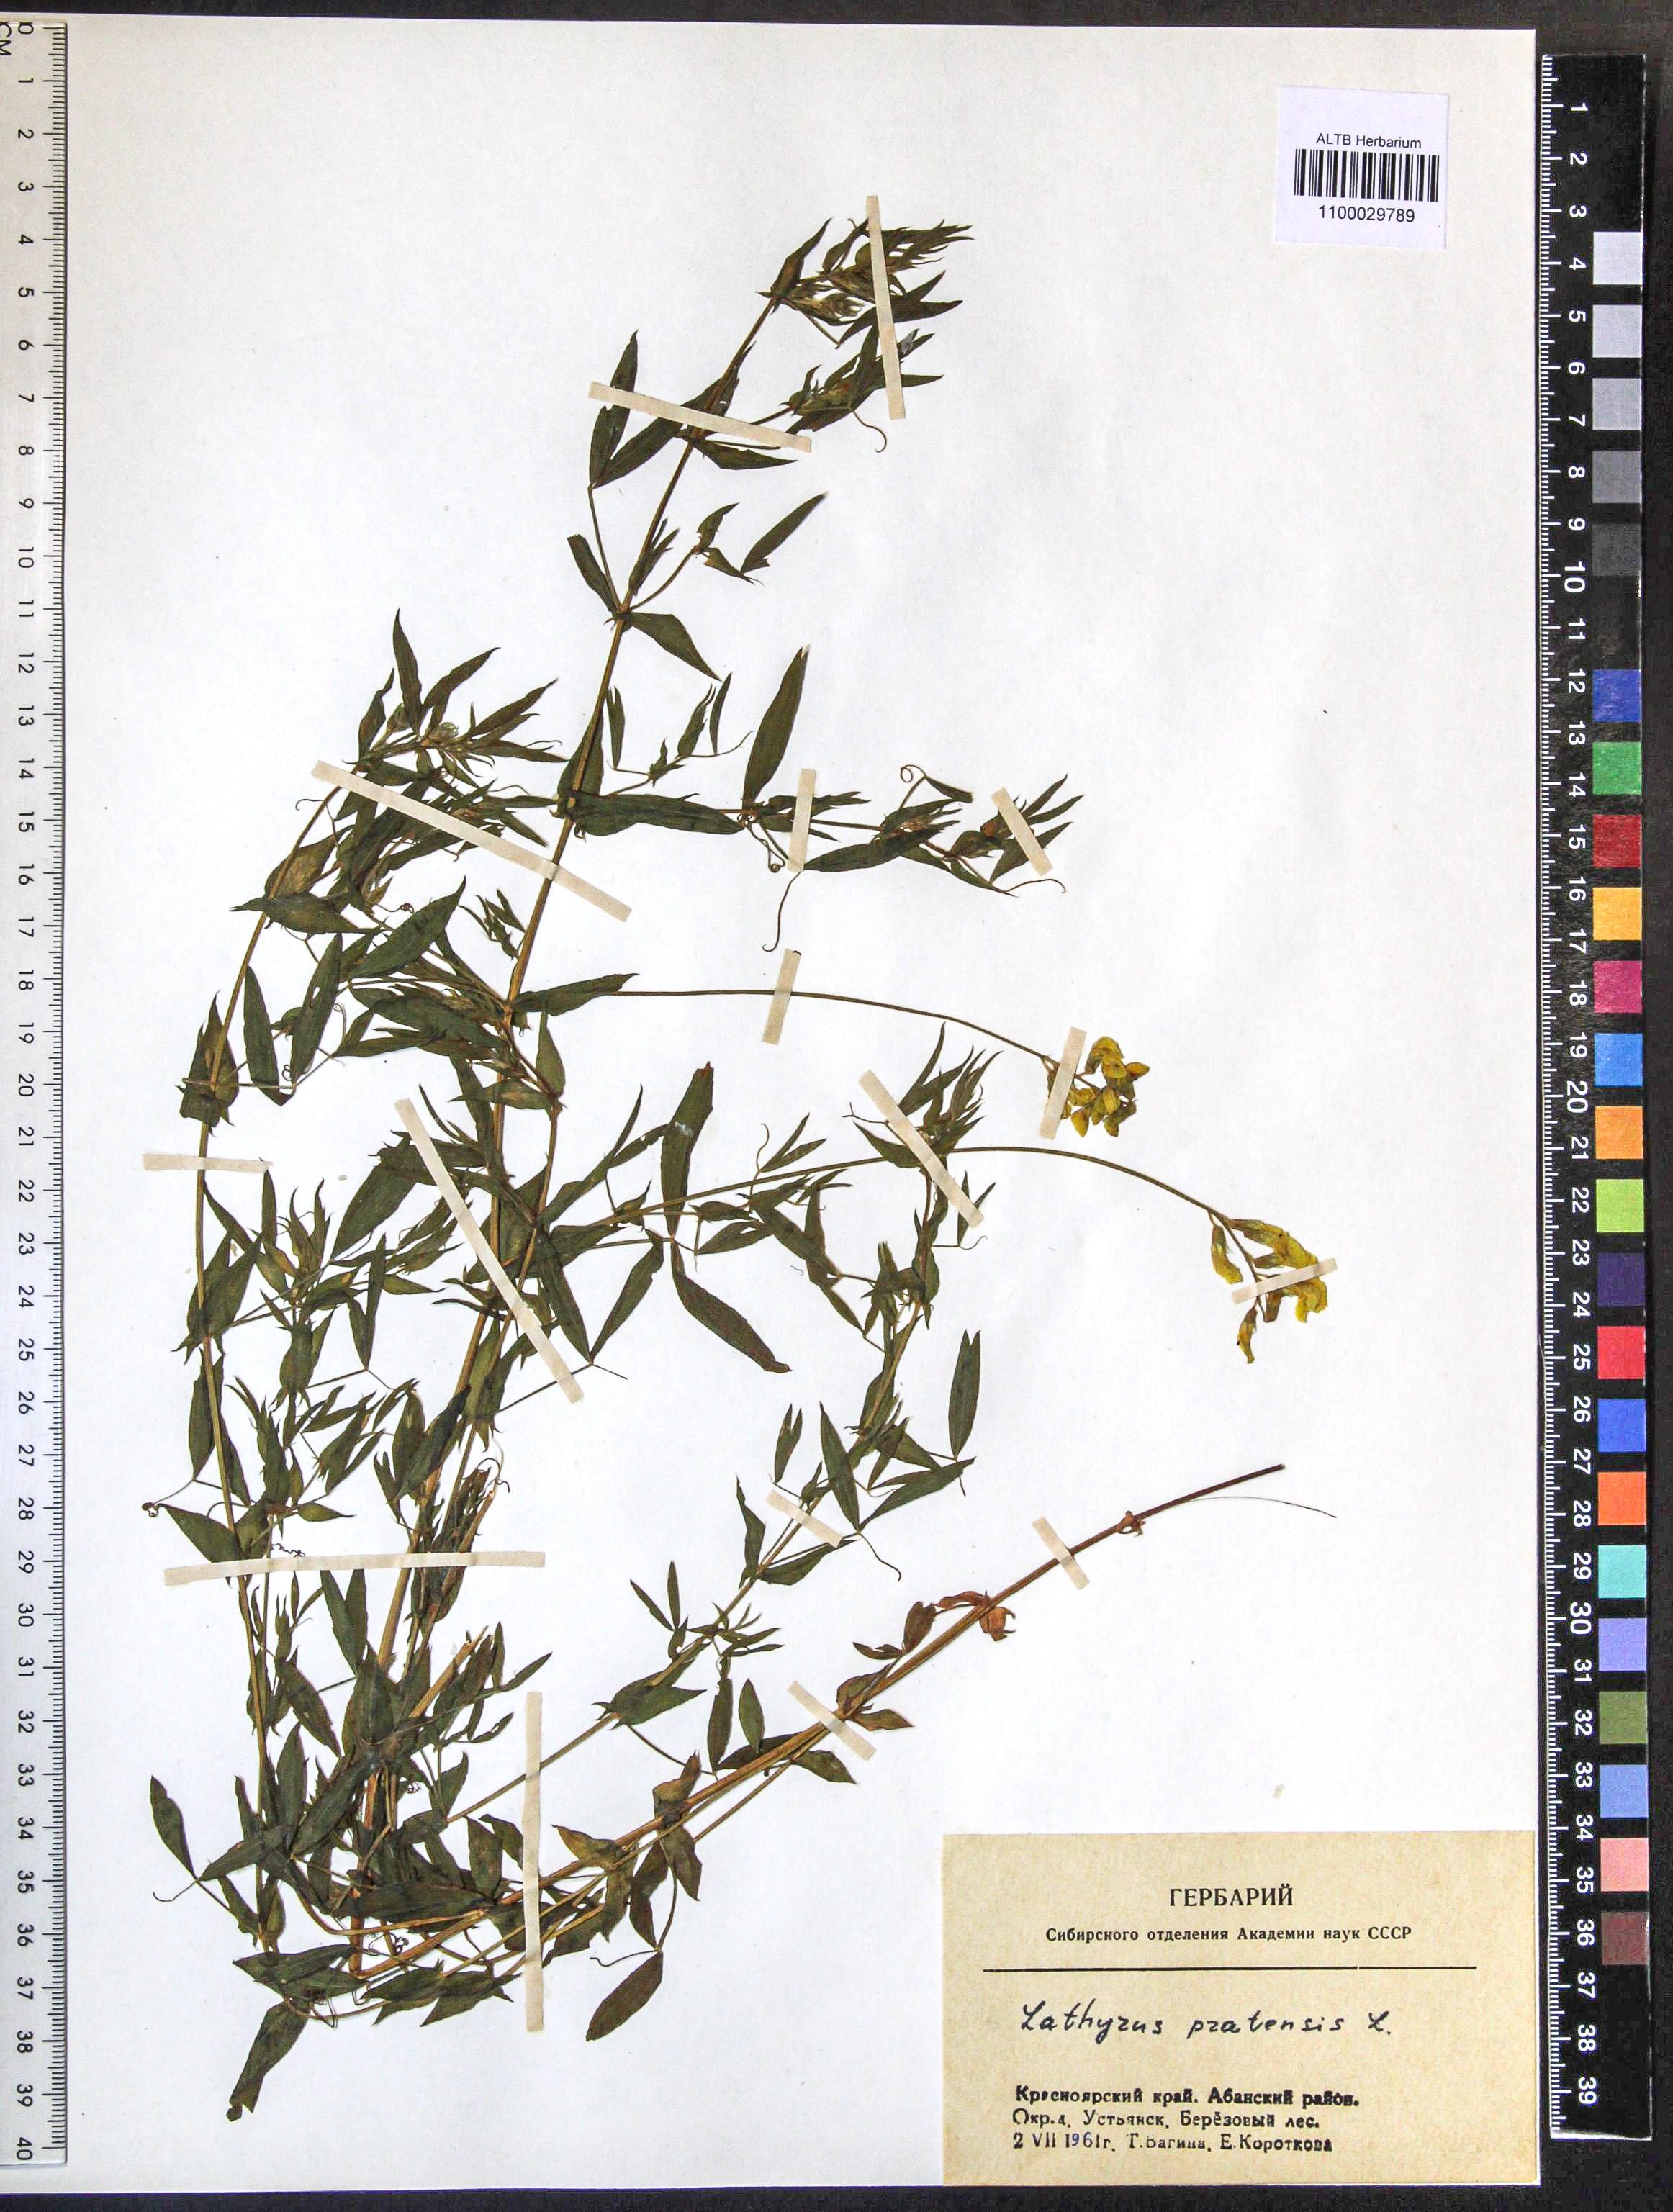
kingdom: Plantae
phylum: Tracheophyta
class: Magnoliopsida
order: Fabales
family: Fabaceae
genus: Lathyrus
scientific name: Lathyrus pratensis
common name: Meadow vetchling
